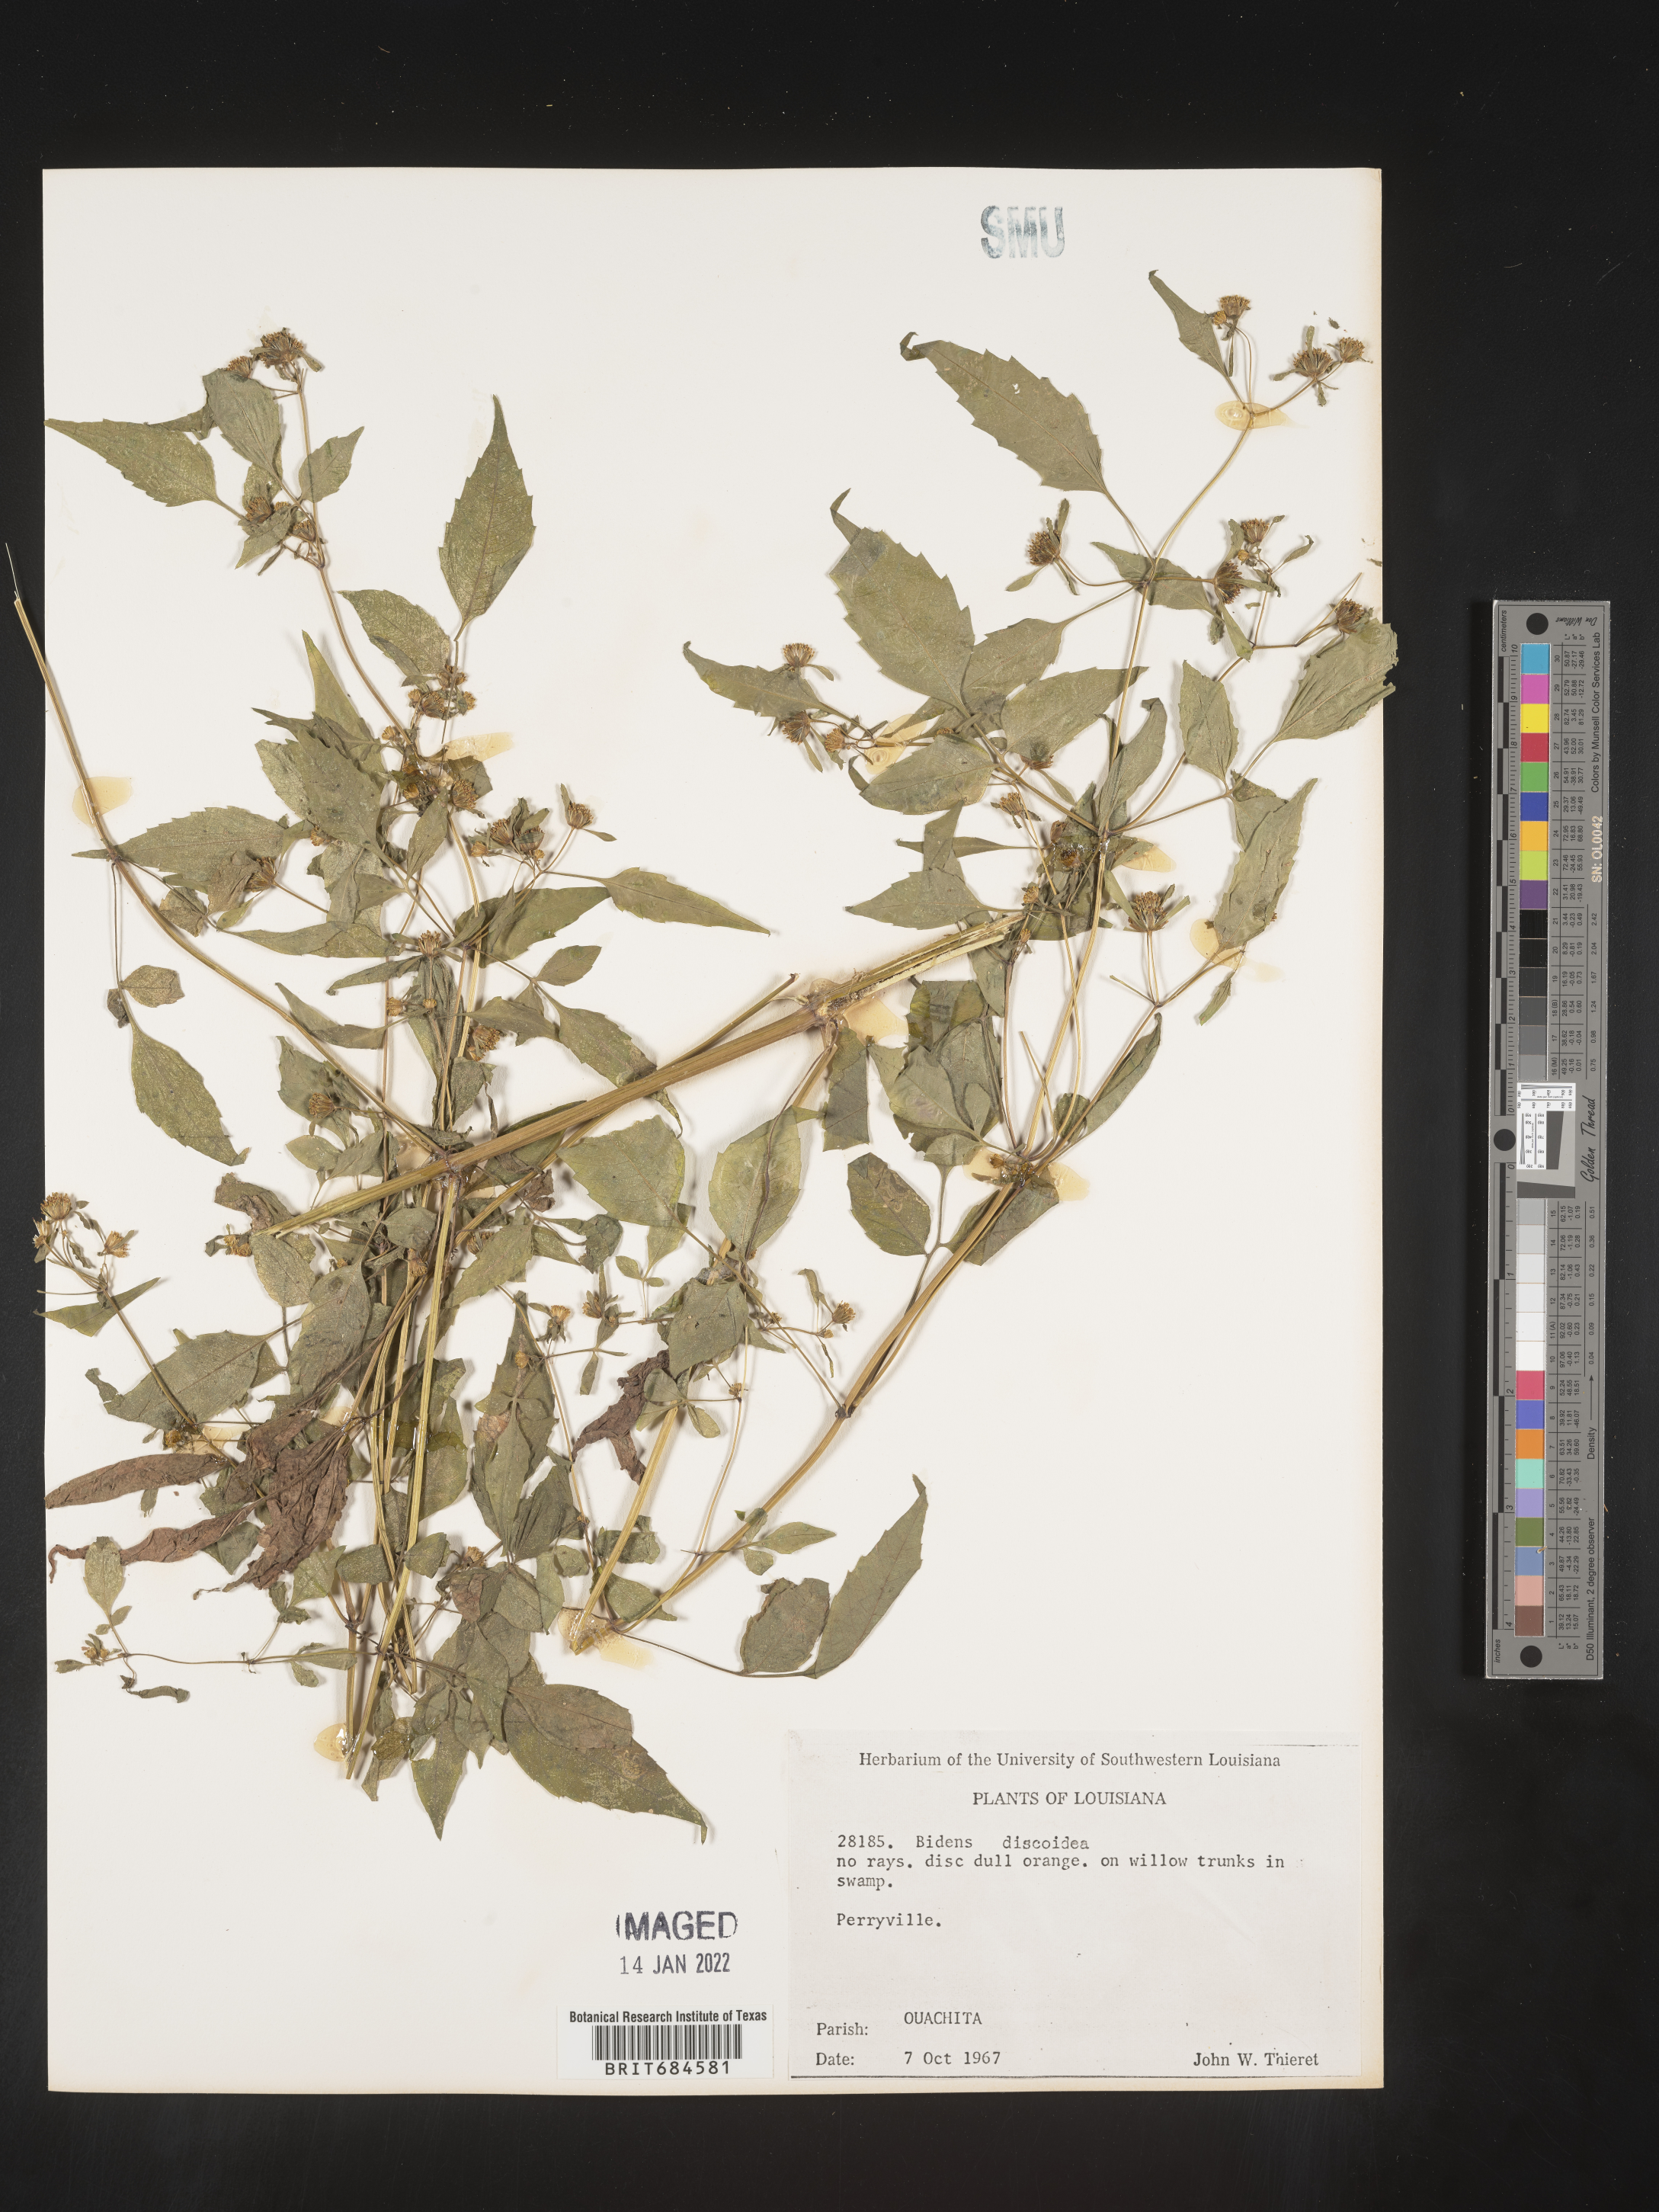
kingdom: Plantae
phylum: Tracheophyta
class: Magnoliopsida
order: Asterales
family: Asteraceae
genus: Bidens
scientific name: Bidens discoidea
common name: Discoide beggarticks
